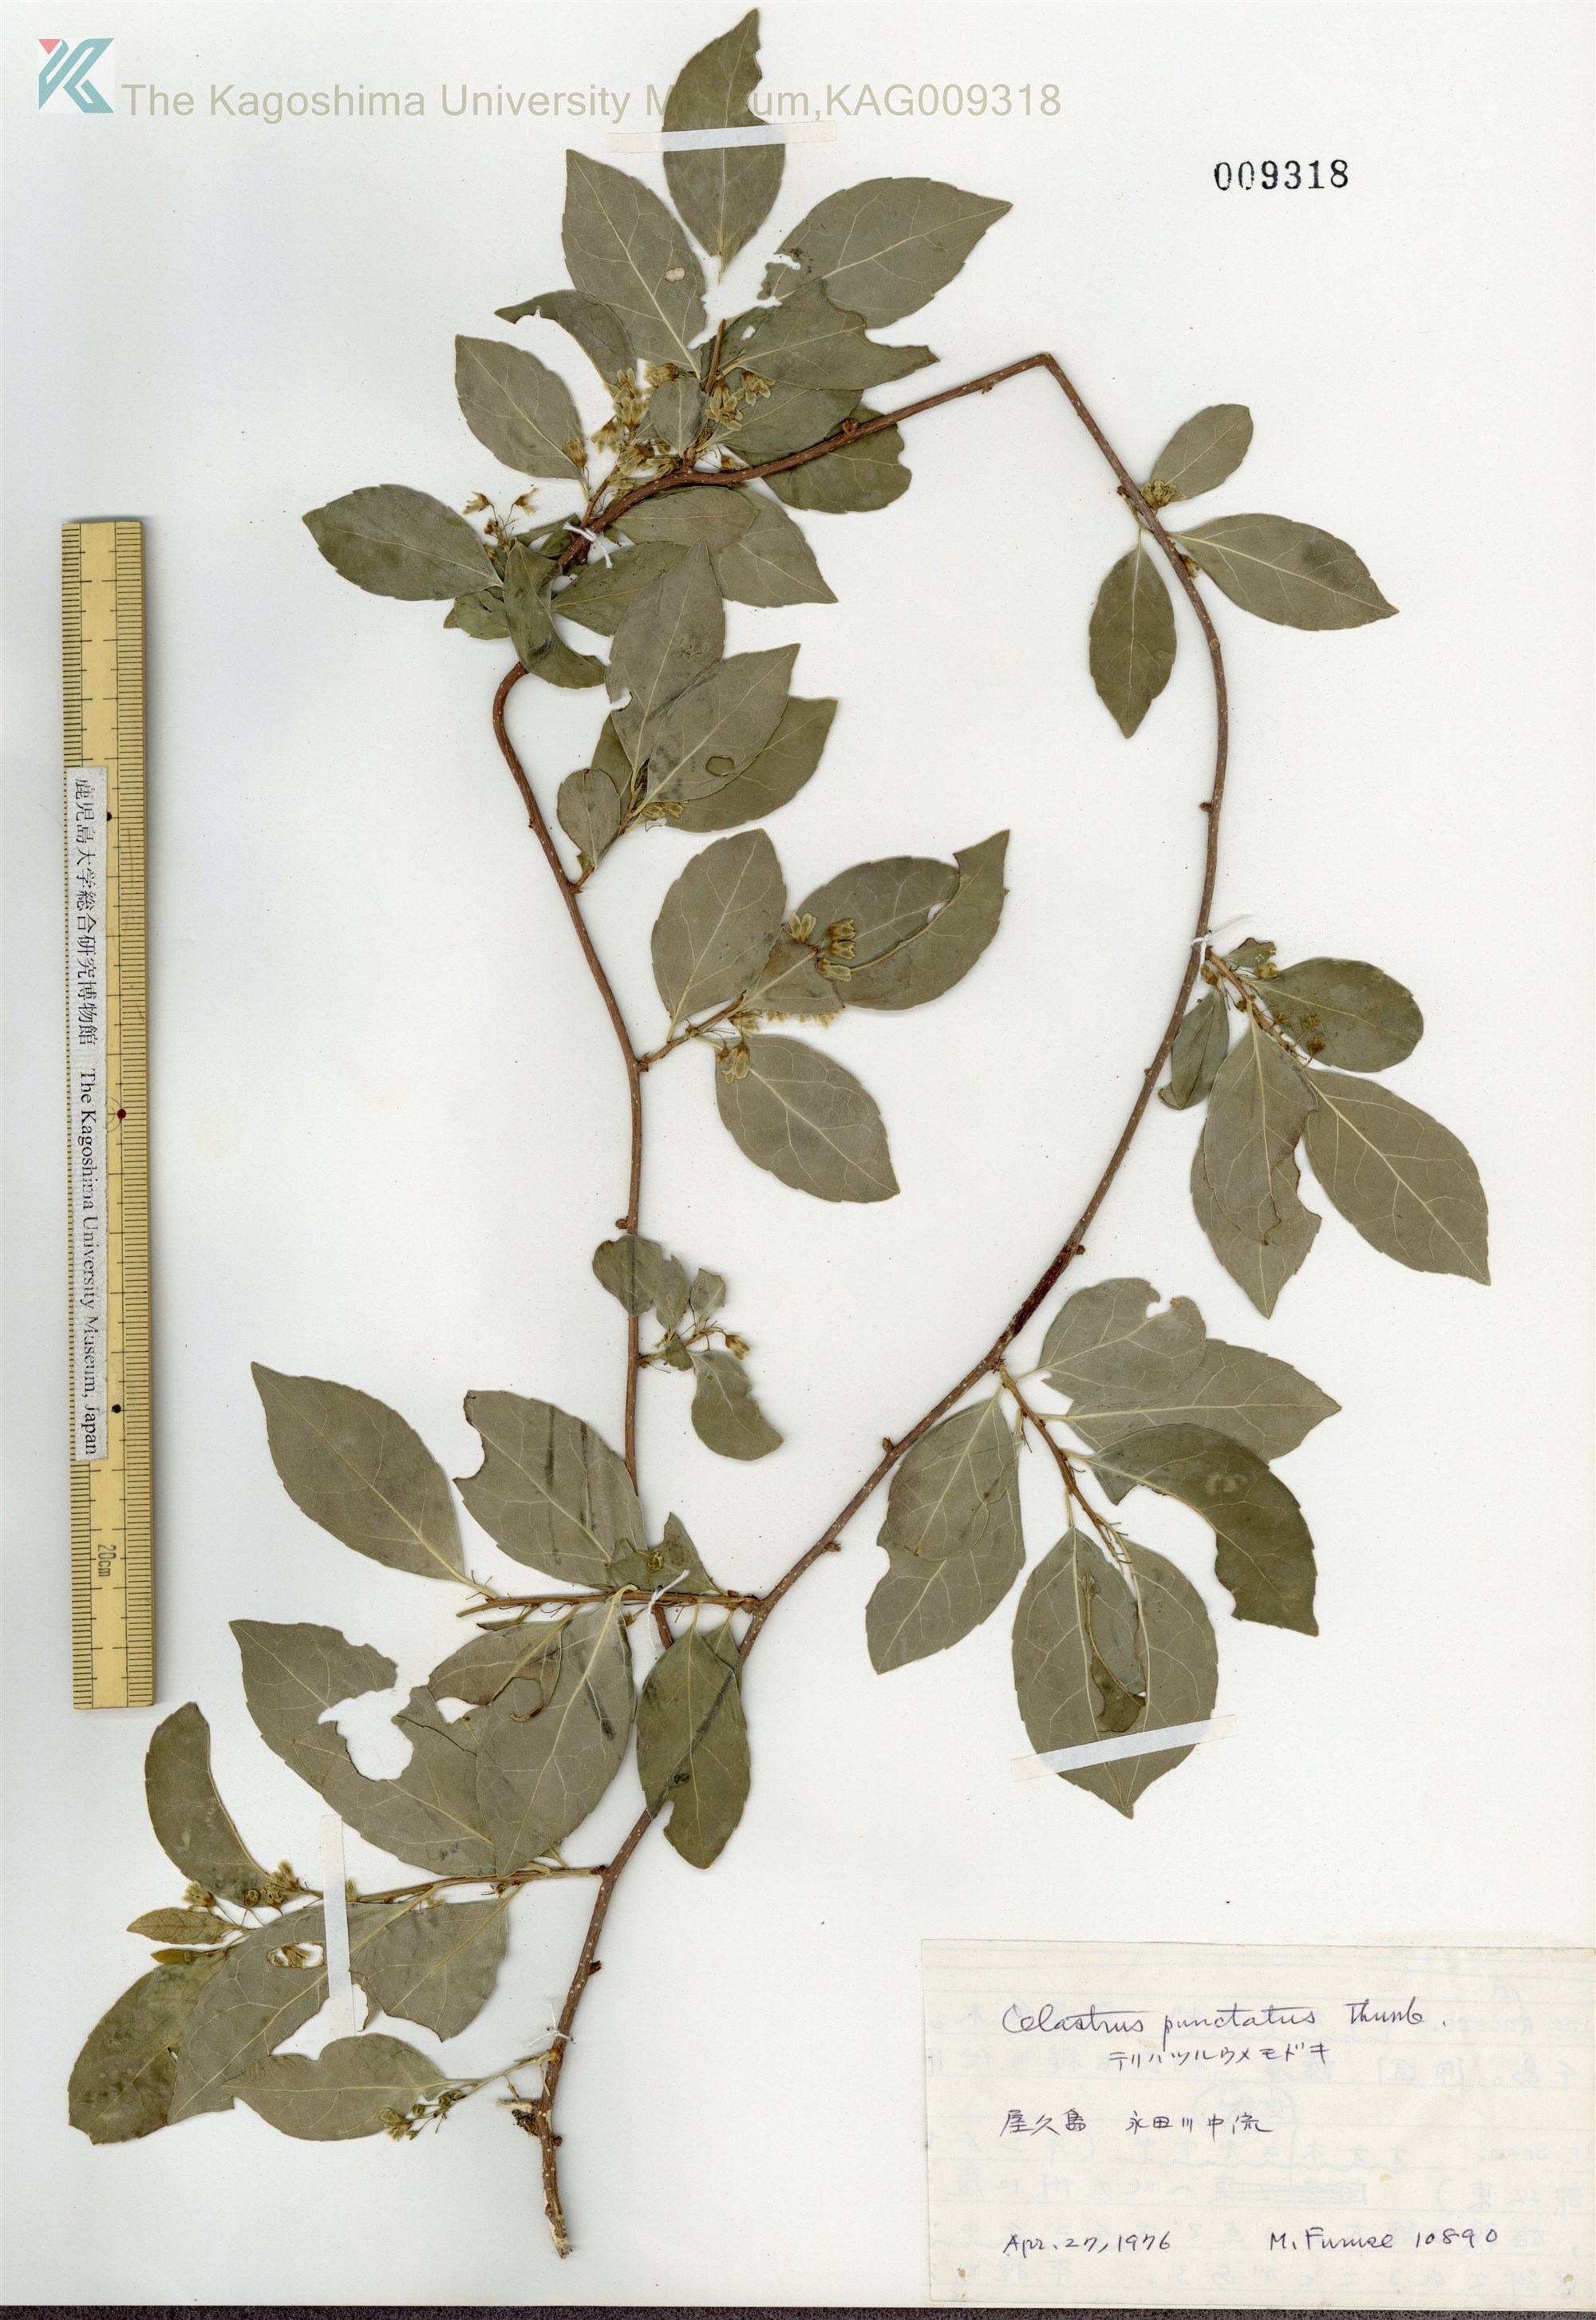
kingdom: Plantae
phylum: Tracheophyta
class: Magnoliopsida
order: Celastrales
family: Celastraceae
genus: Celastrus
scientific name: Celastrus punctatus
